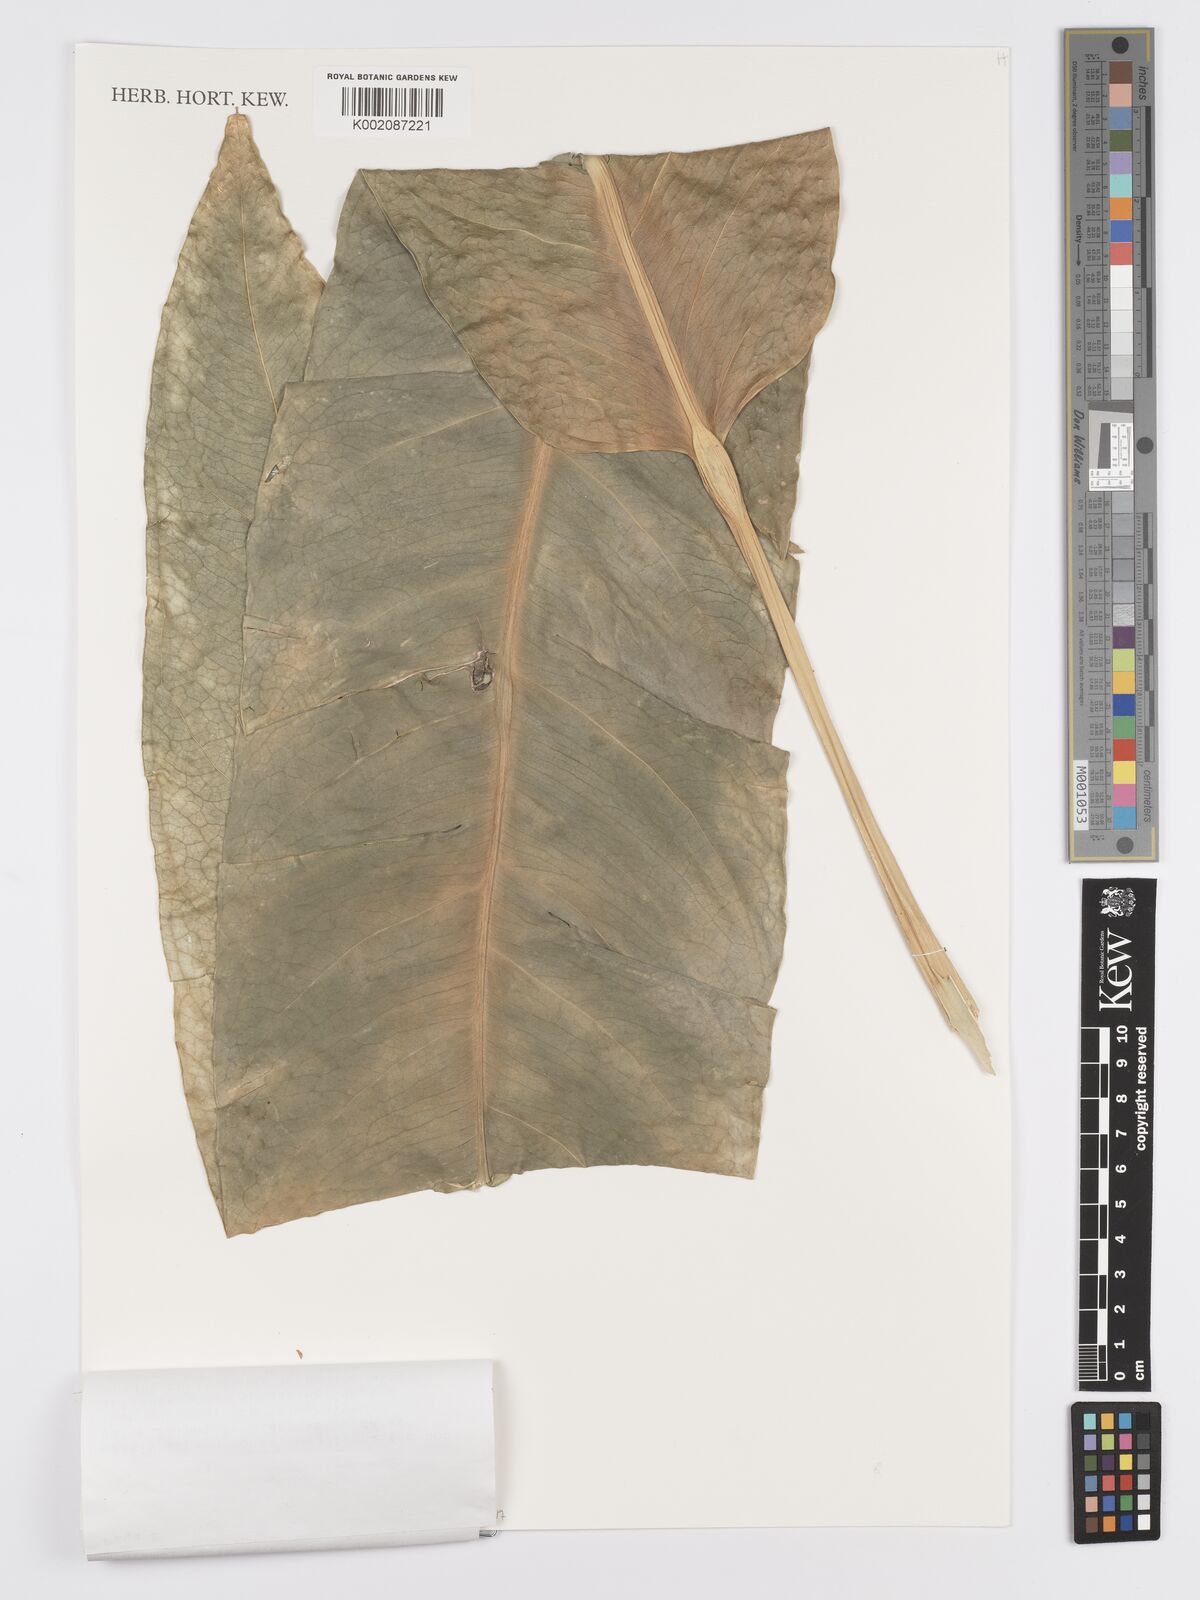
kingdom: Plantae
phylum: Tracheophyta
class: Liliopsida
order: Alismatales
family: Araceae
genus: Anthurium
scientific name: Anthurium validifolium
